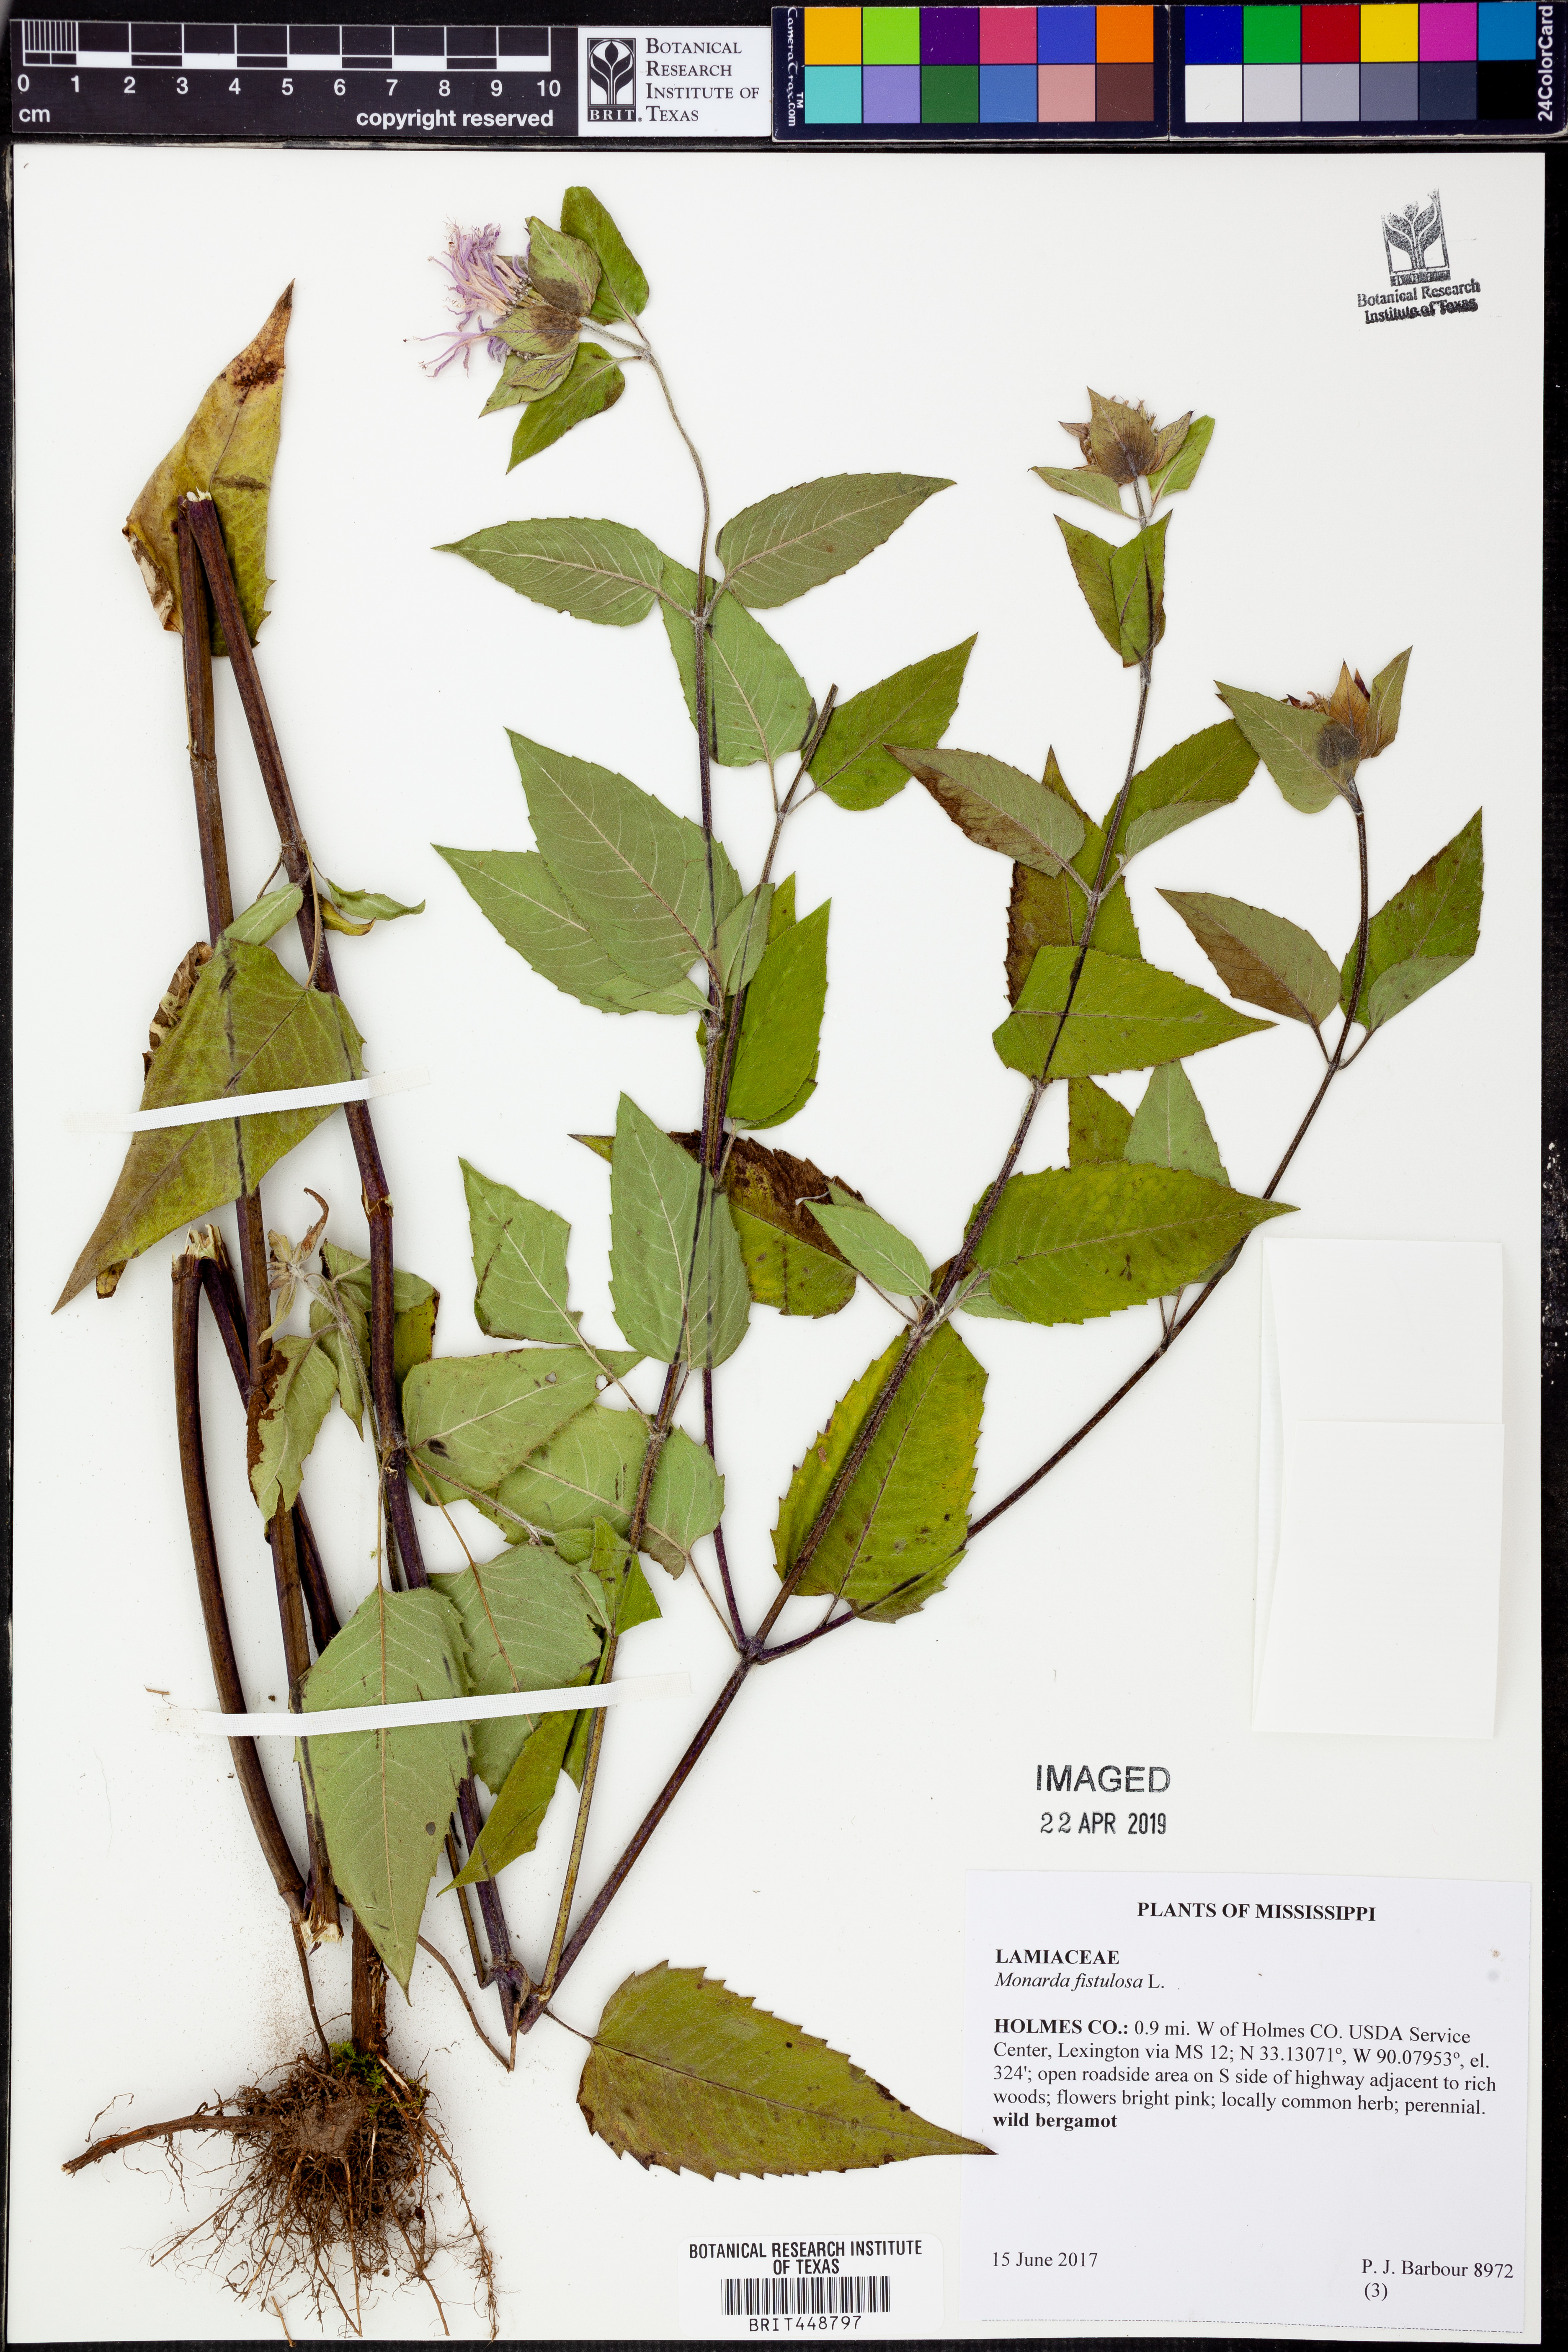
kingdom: Plantae
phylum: Tracheophyta
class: Magnoliopsida
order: Lamiales
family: Lamiaceae
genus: Monarda
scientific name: Monarda fistulosa
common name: Purple beebalm
